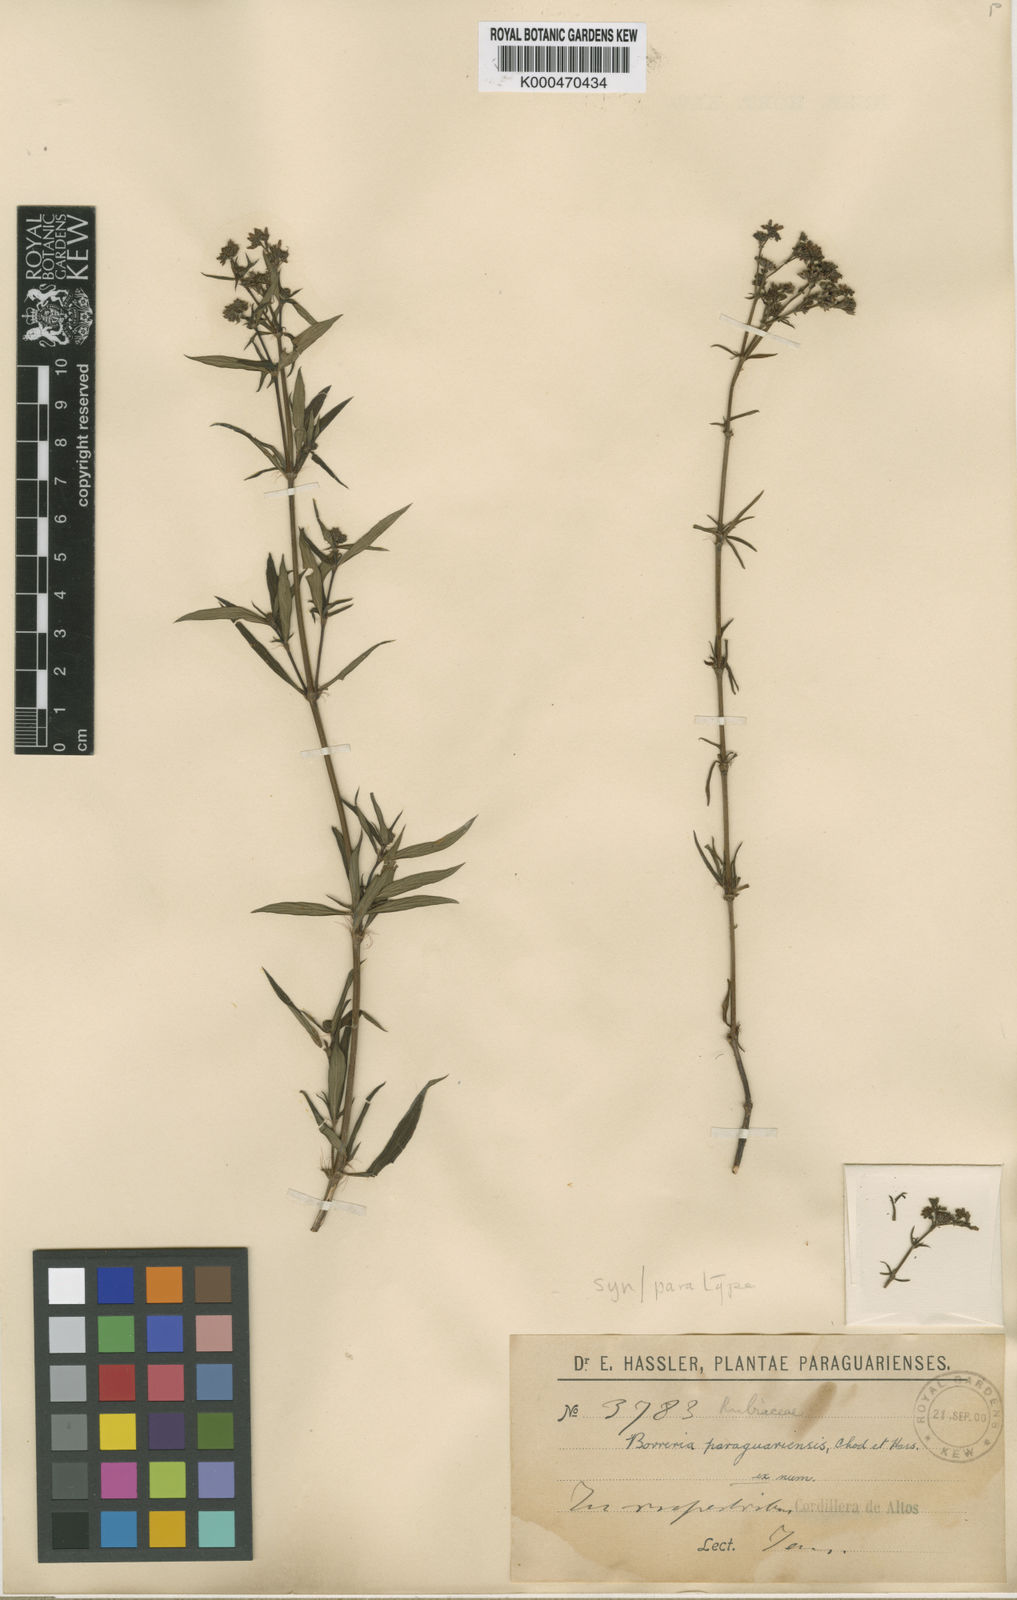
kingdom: Plantae
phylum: Tracheophyta
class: Magnoliopsida
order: Gentianales
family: Rubiaceae
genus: Galianthe
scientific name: Galianthe laxa
